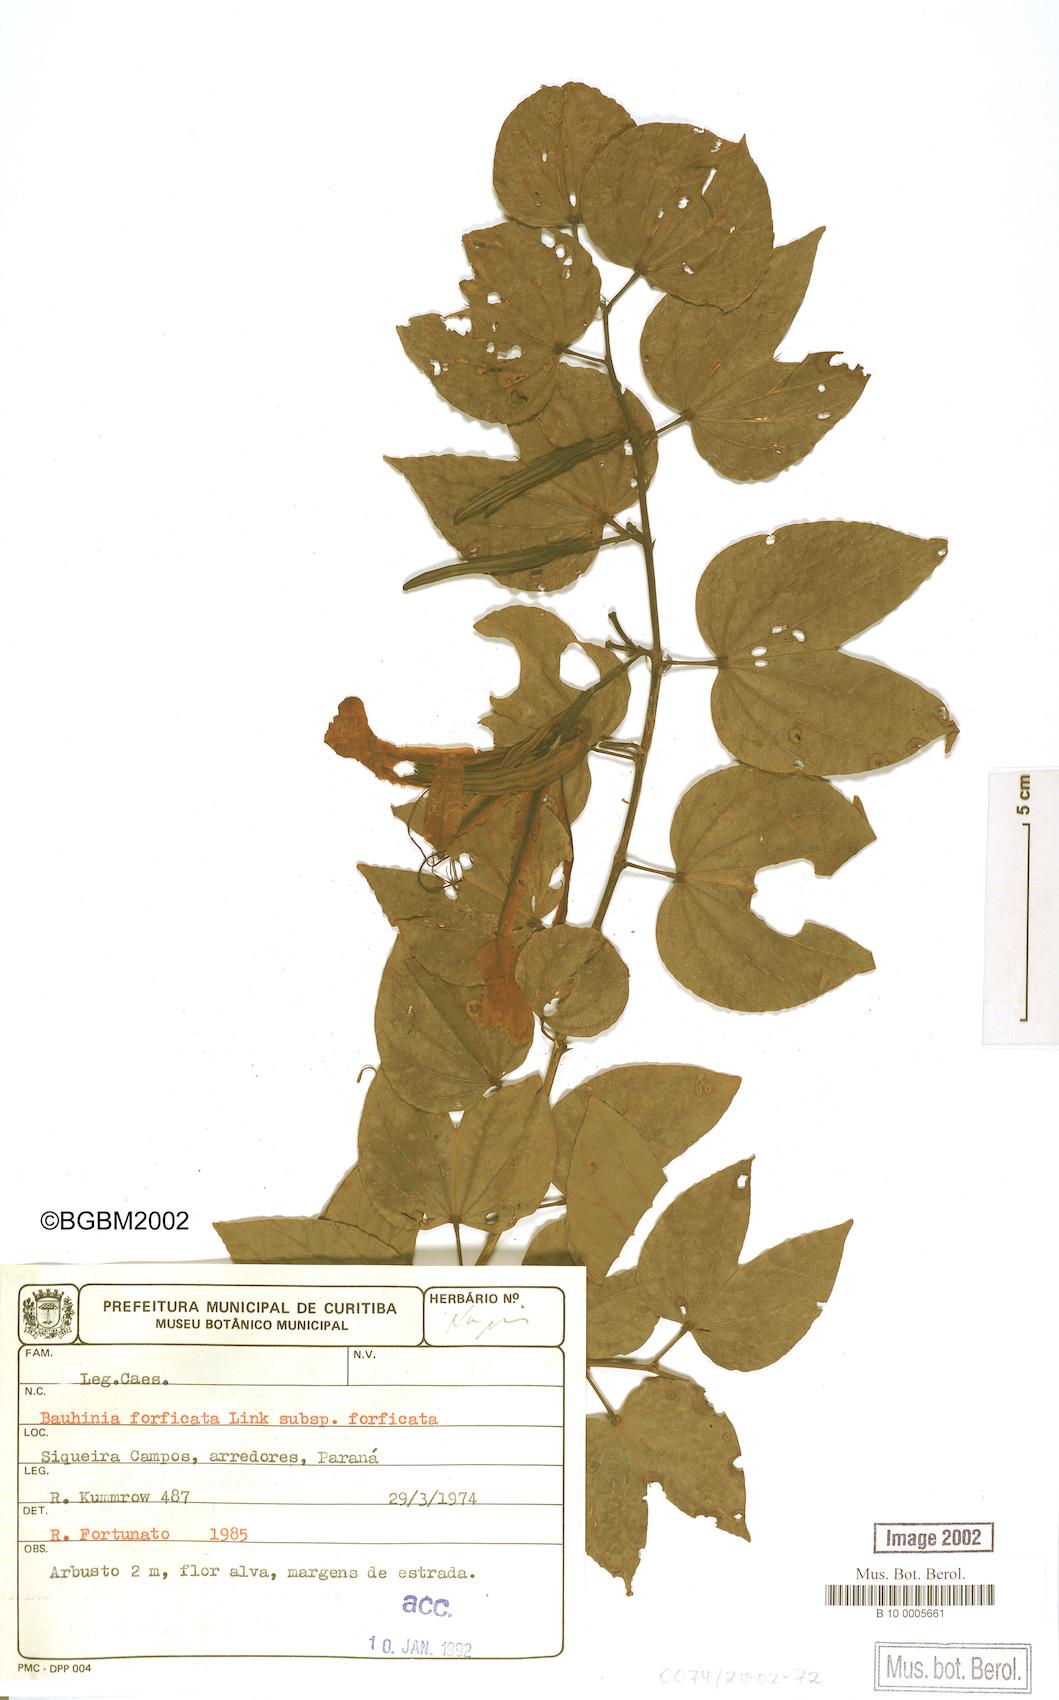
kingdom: Plantae
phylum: Tracheophyta
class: Magnoliopsida
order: Fabales
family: Fabaceae
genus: Bauhinia
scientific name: Bauhinia forficata
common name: Orchid tree
